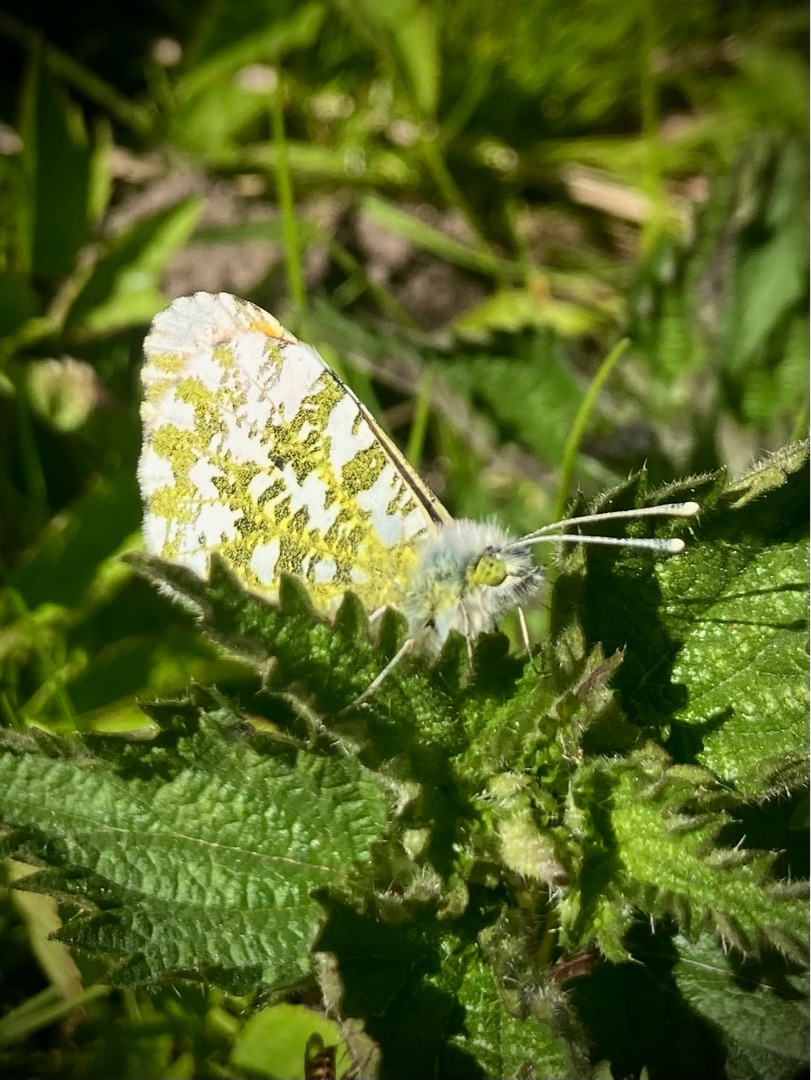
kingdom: Animalia
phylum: Arthropoda
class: Insecta
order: Lepidoptera
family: Pieridae
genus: Anthocharis
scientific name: Anthocharis cardamines
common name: Aurora
